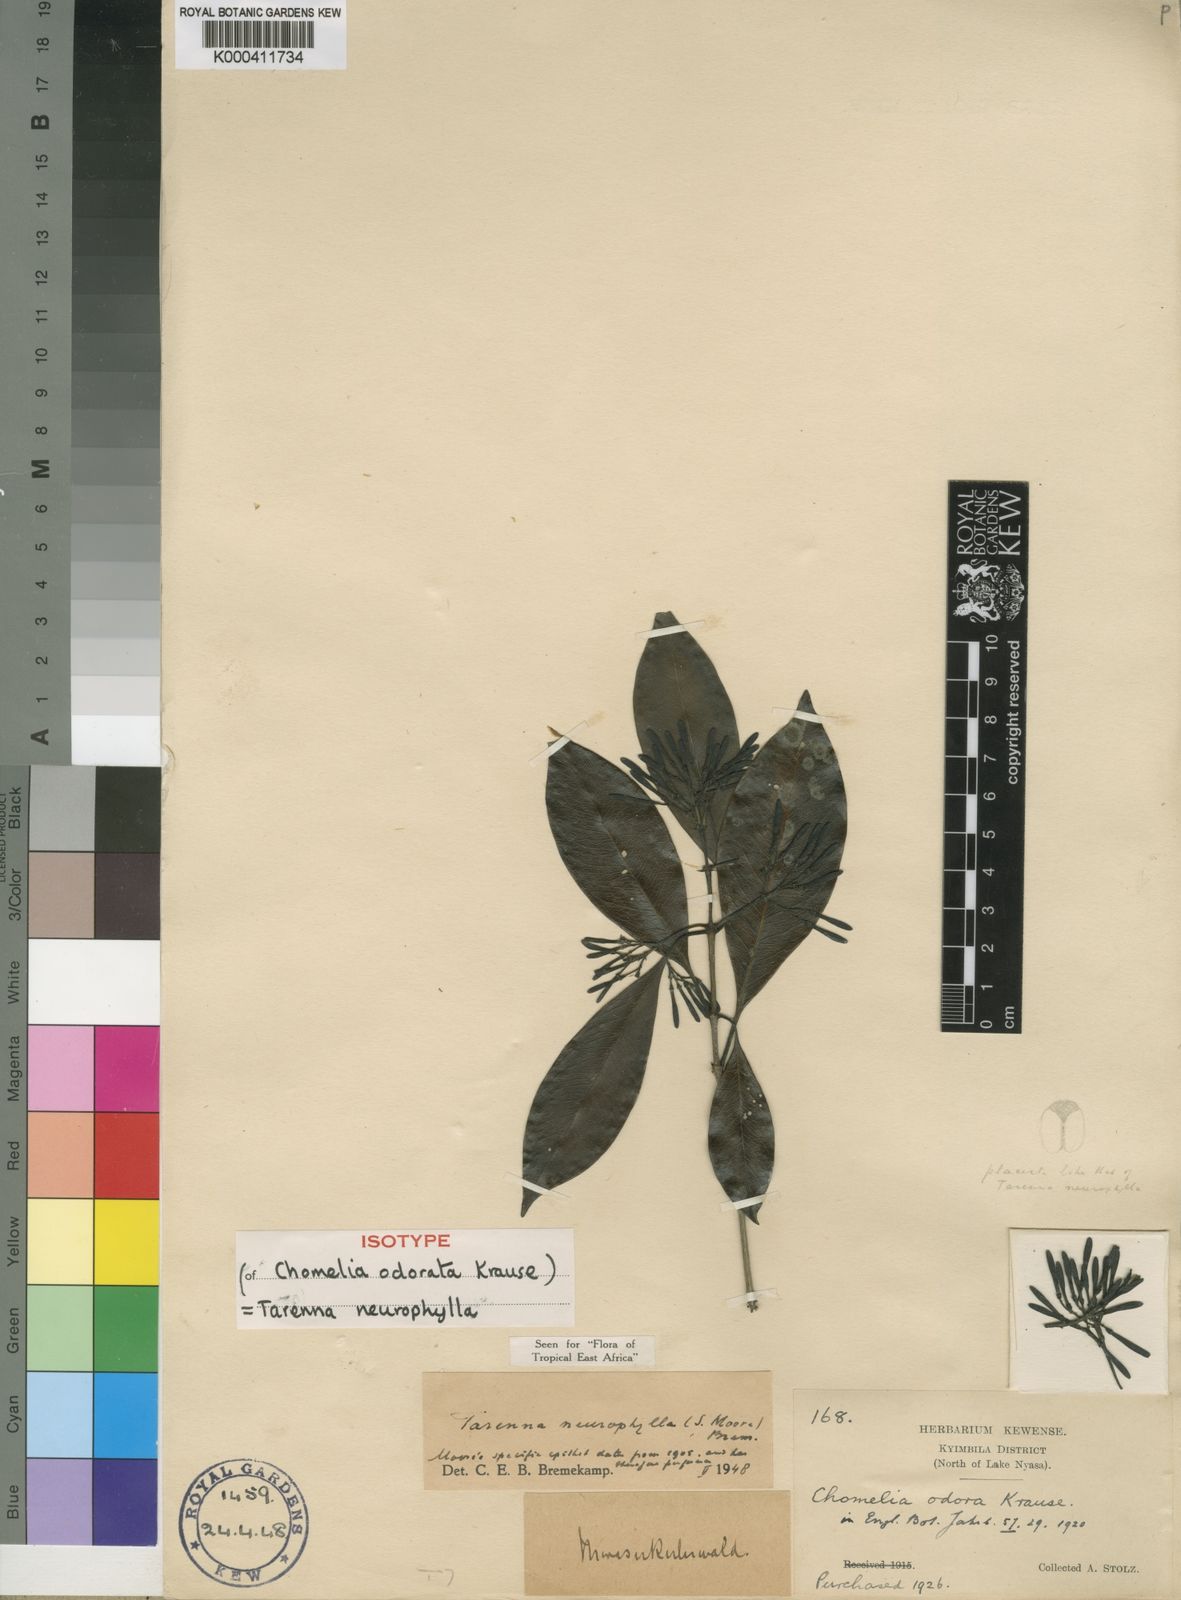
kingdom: Plantae
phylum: Tracheophyta
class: Magnoliopsida
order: Gentianales
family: Rubiaceae
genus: Coptosperma
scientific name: Coptosperma neurophyllum
